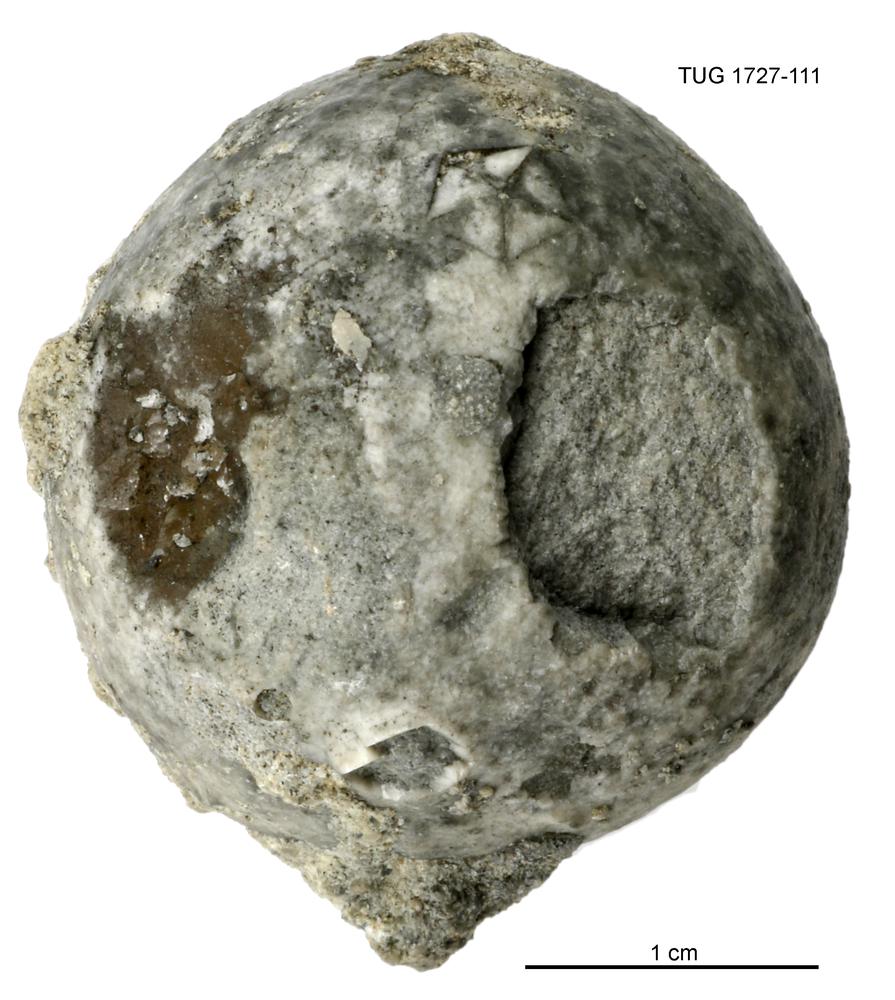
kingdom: Animalia
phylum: Echinodermata
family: Echinosphaeritidae
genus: Echinosphaerites
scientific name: Echinosphaerites
